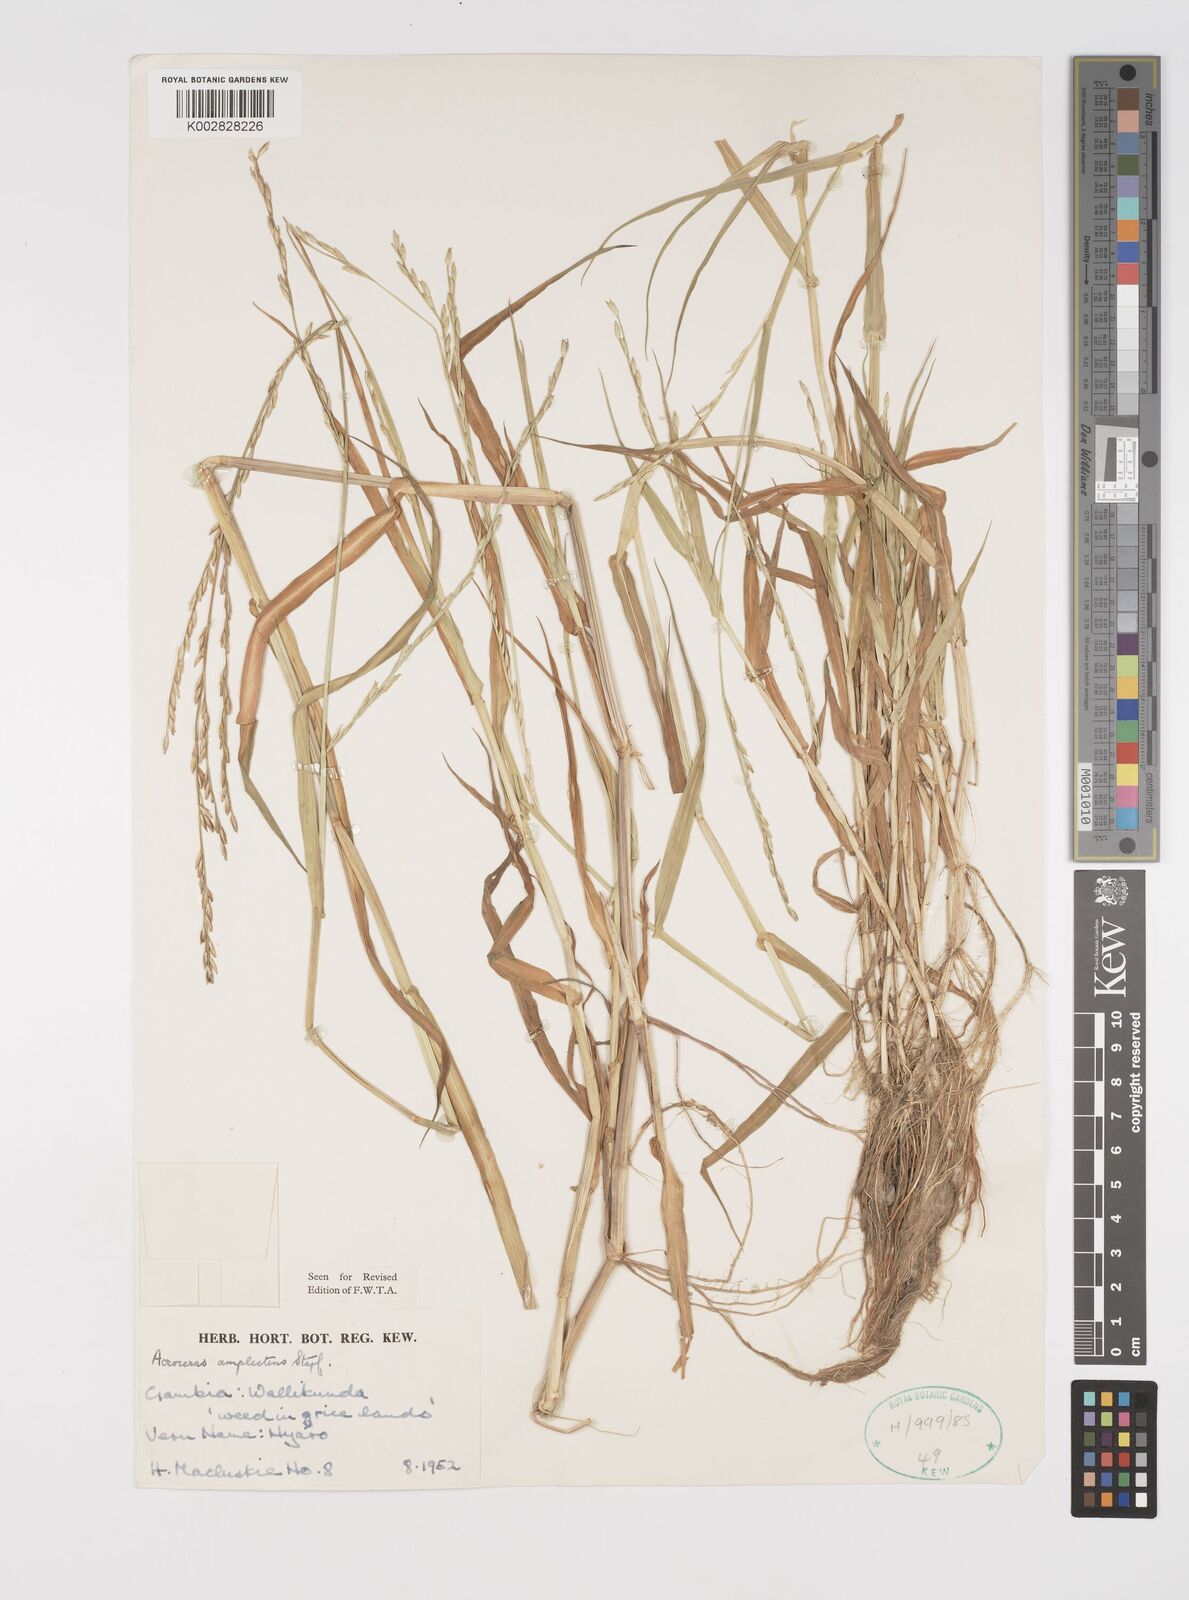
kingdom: Plantae
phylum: Tracheophyta
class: Liliopsida
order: Poales
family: Poaceae
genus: Acroceras
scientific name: Acroceras amplectens
